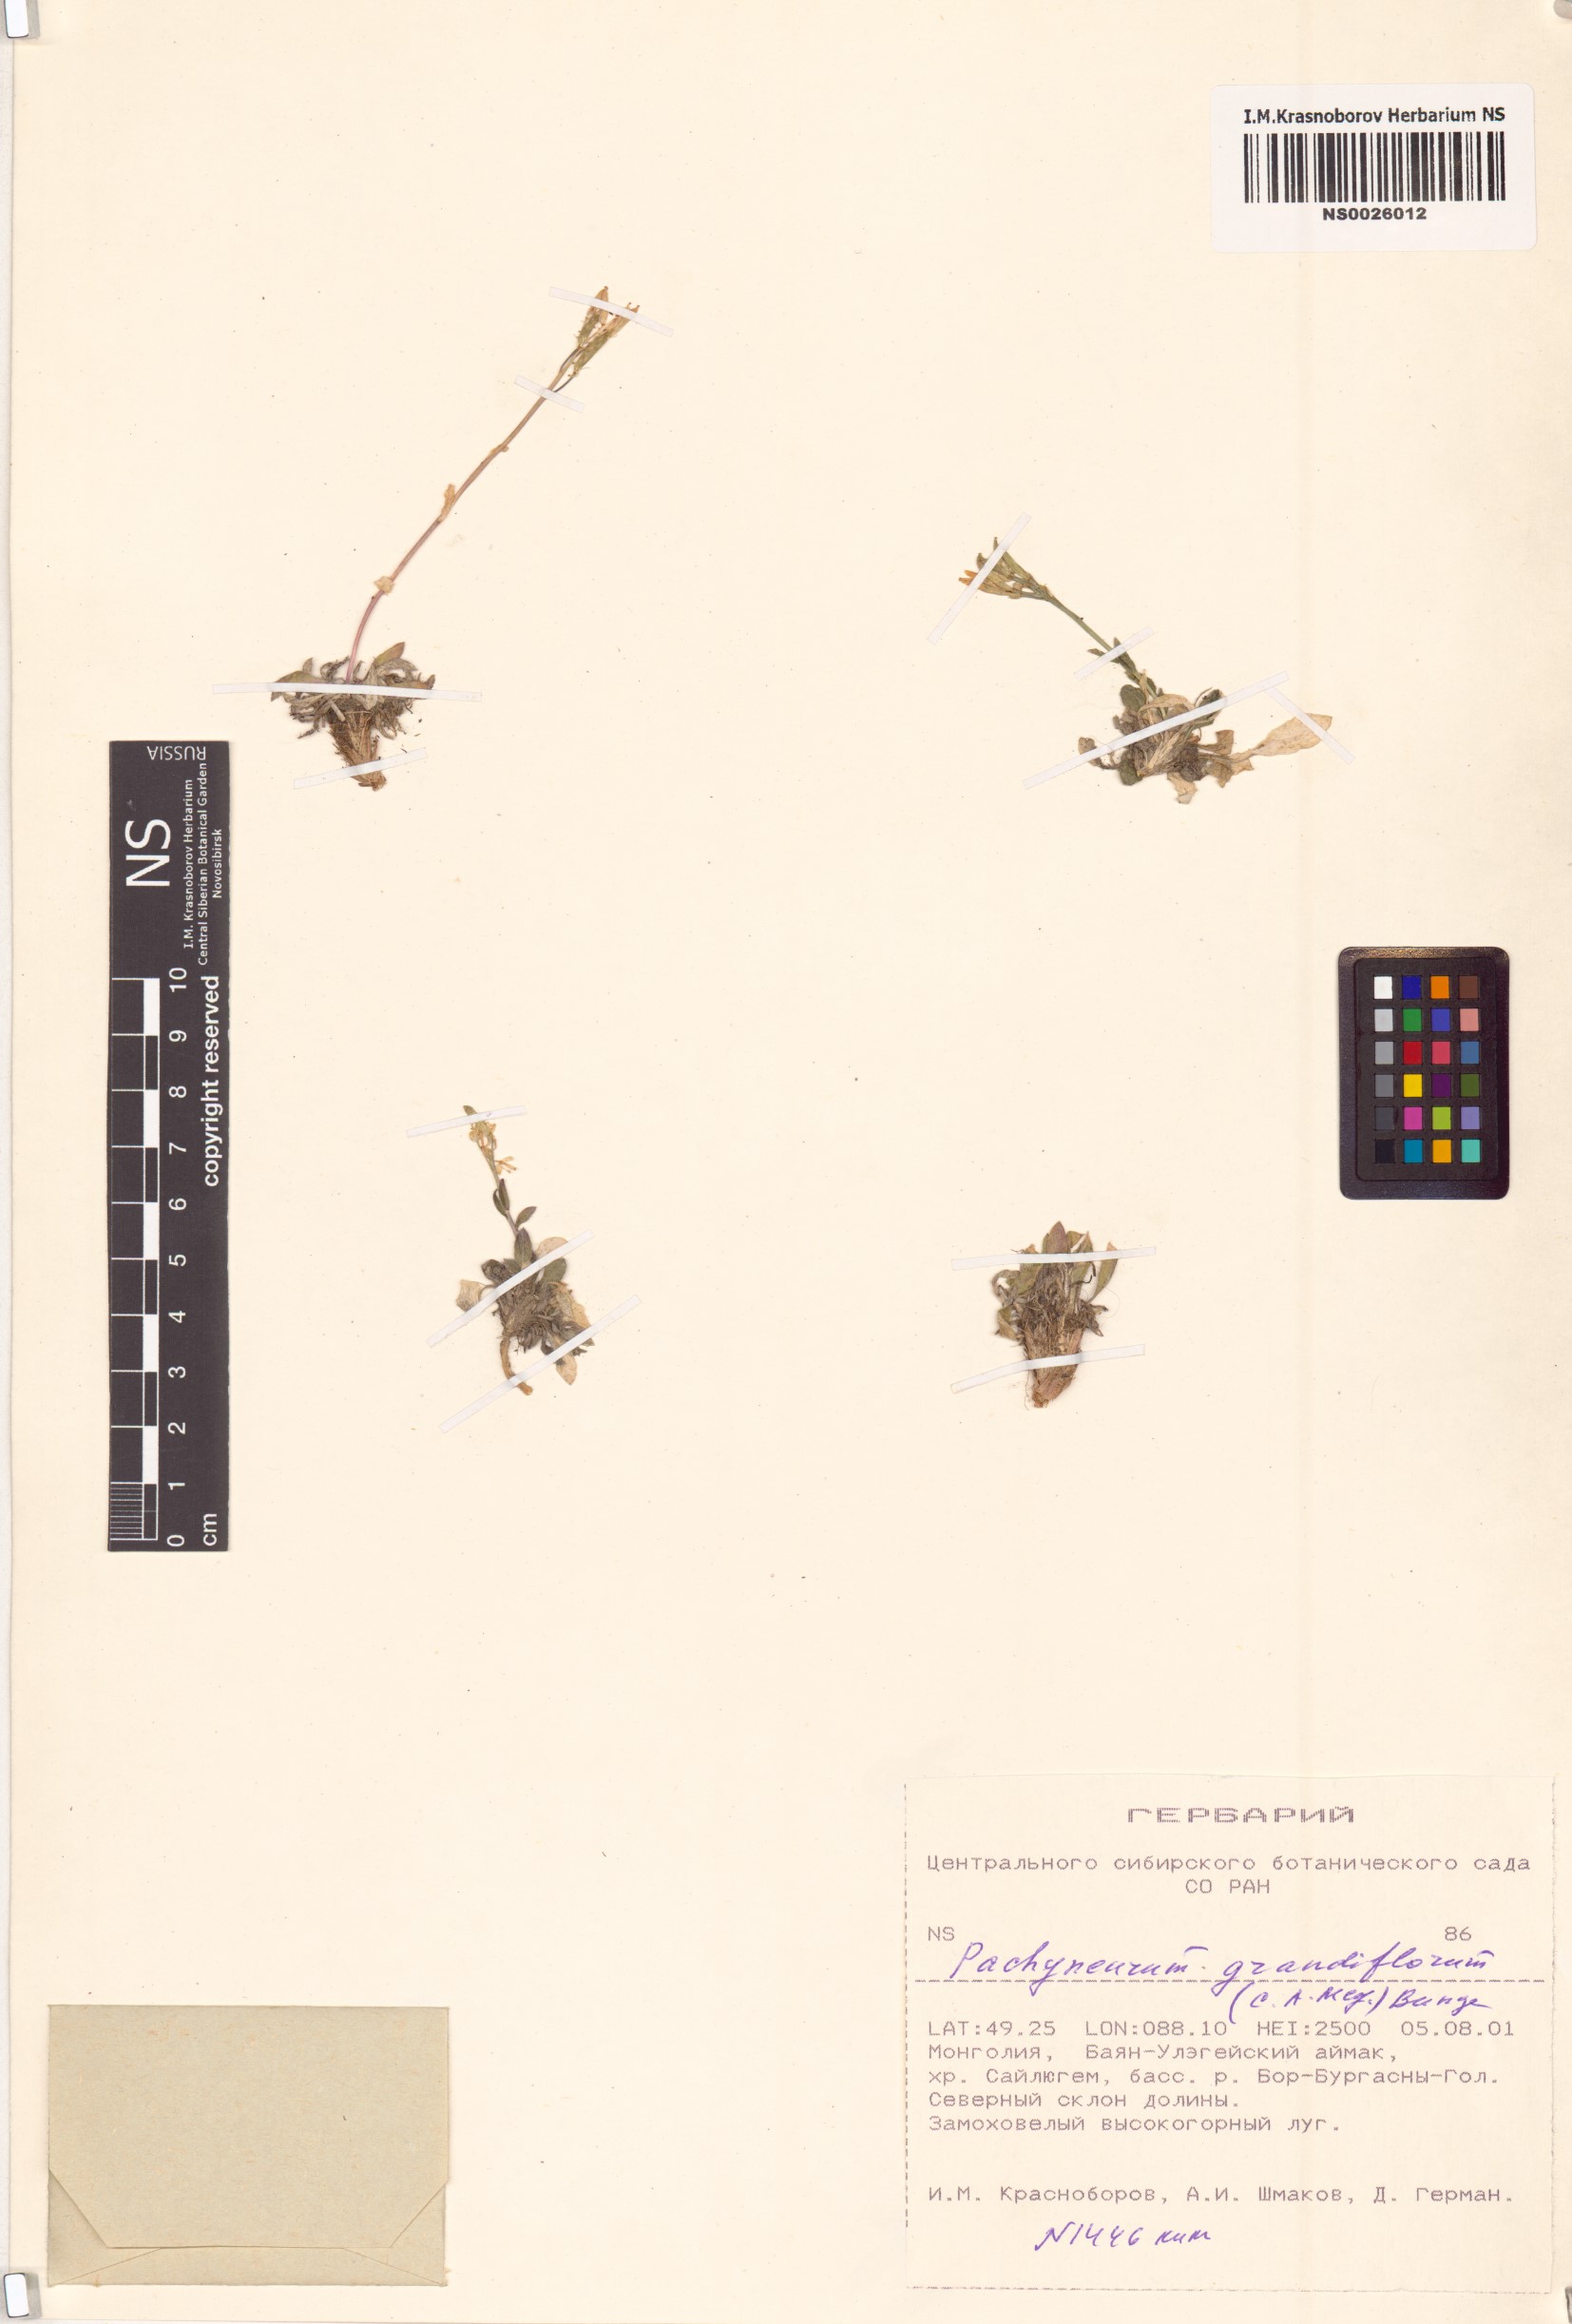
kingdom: Plantae
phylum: Tracheophyta
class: Magnoliopsida
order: Brassicales
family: Brassicaceae
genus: Pachyneurum
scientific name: Pachyneurum grandiflorum
